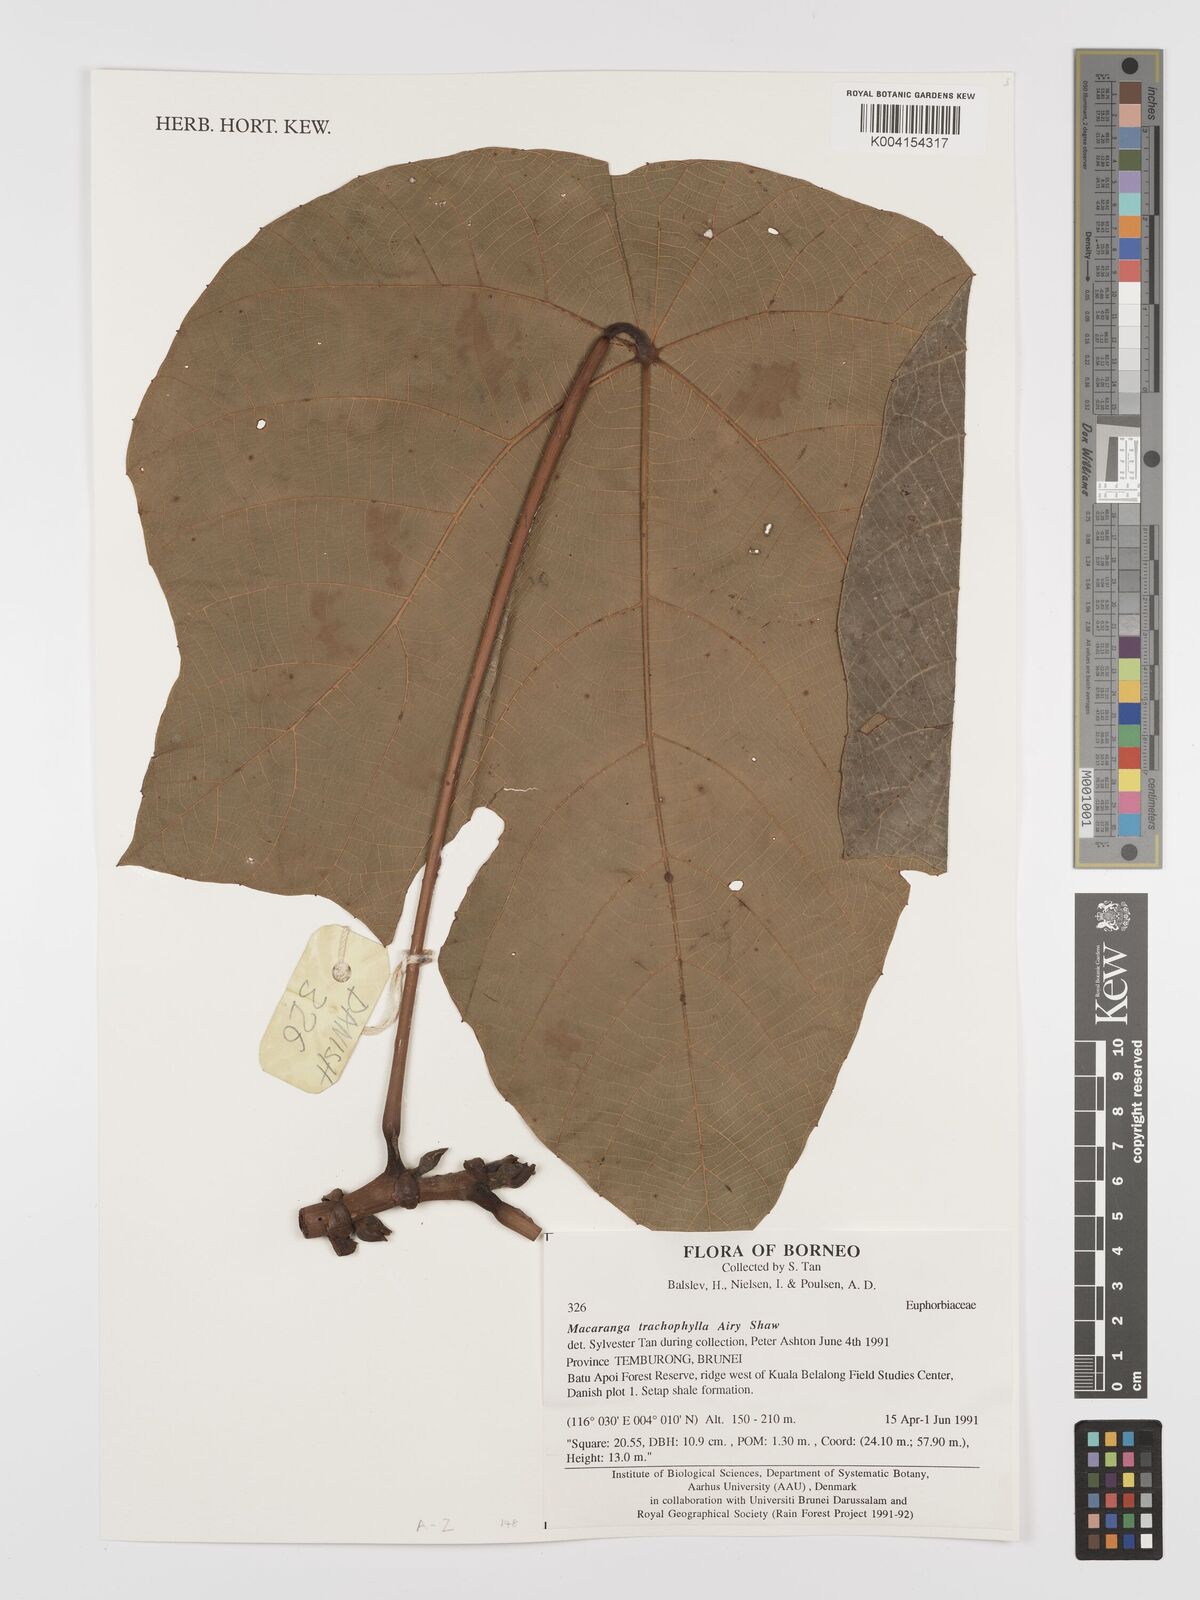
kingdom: Plantae
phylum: Tracheophyta
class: Magnoliopsida
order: Malpighiales
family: Euphorbiaceae
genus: Macaranga
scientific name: Macaranga trachyphylla
